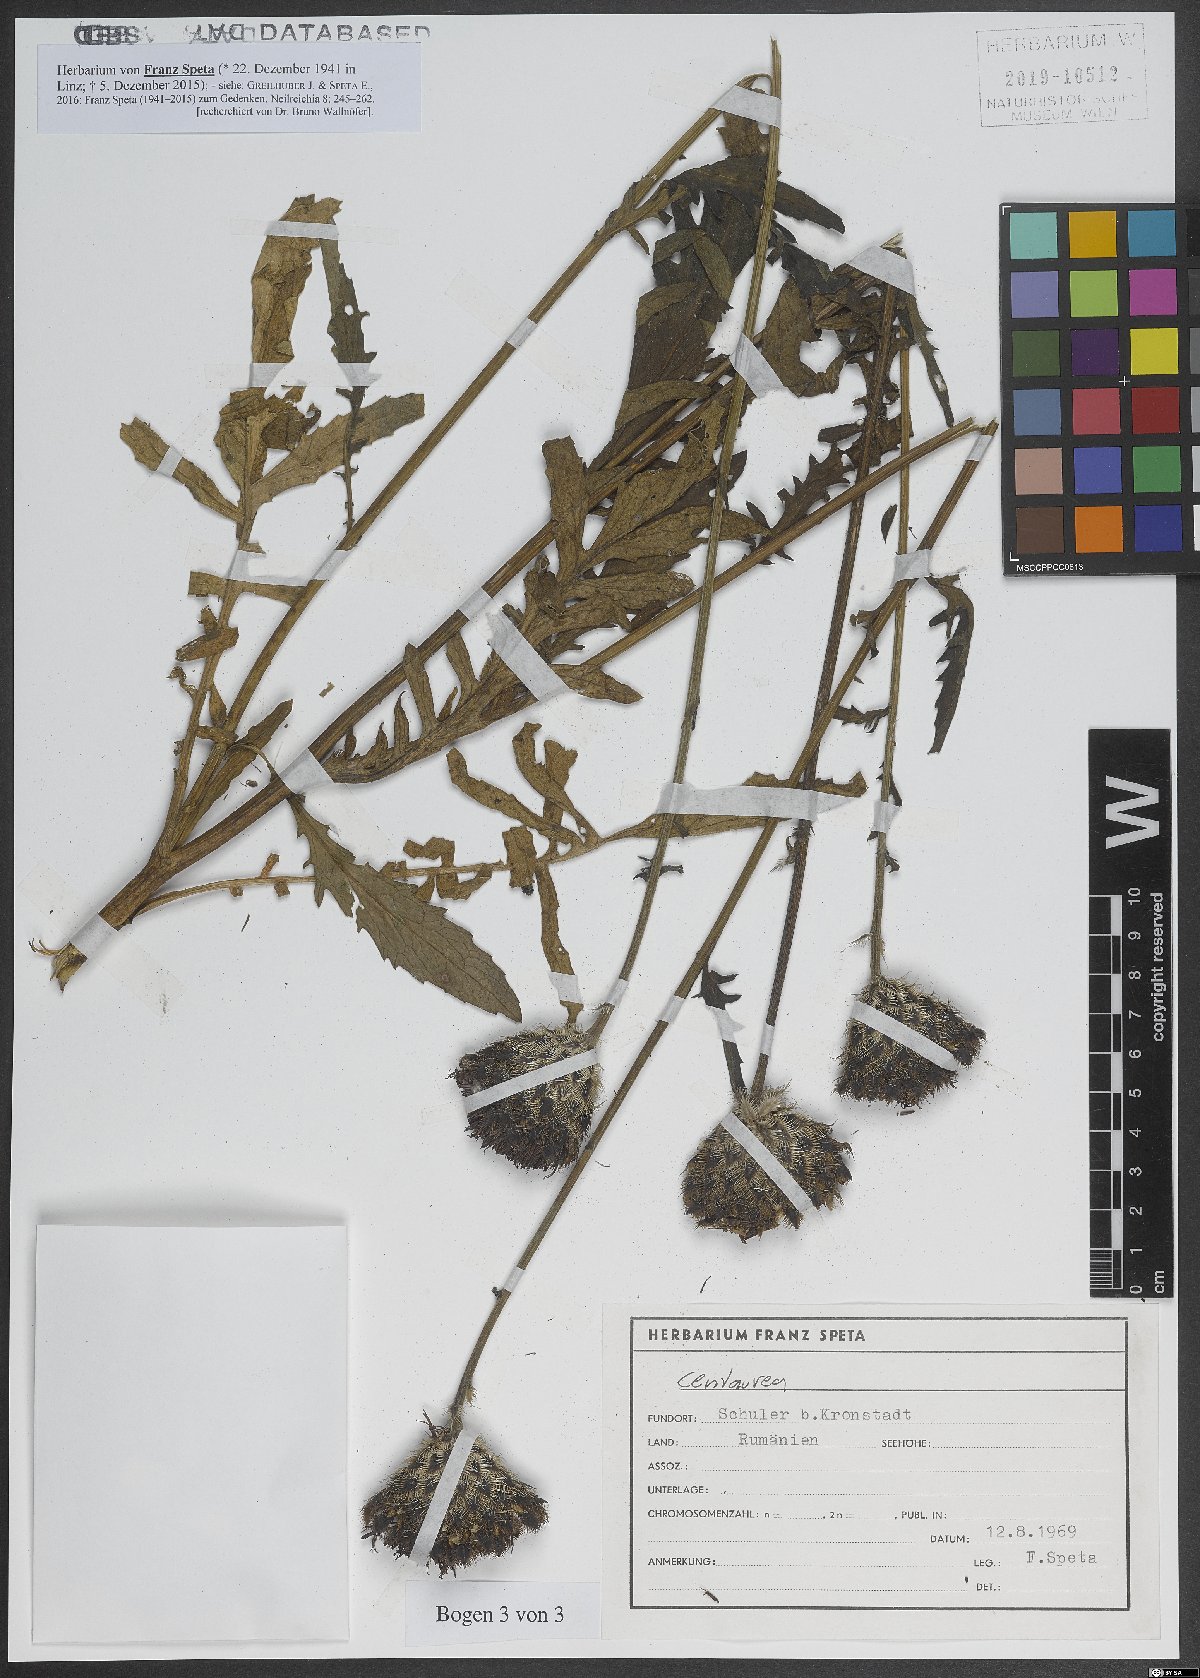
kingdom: Plantae
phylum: Tracheophyta
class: Magnoliopsida
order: Asterales
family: Asteraceae
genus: Centaurea
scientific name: Centaurea
